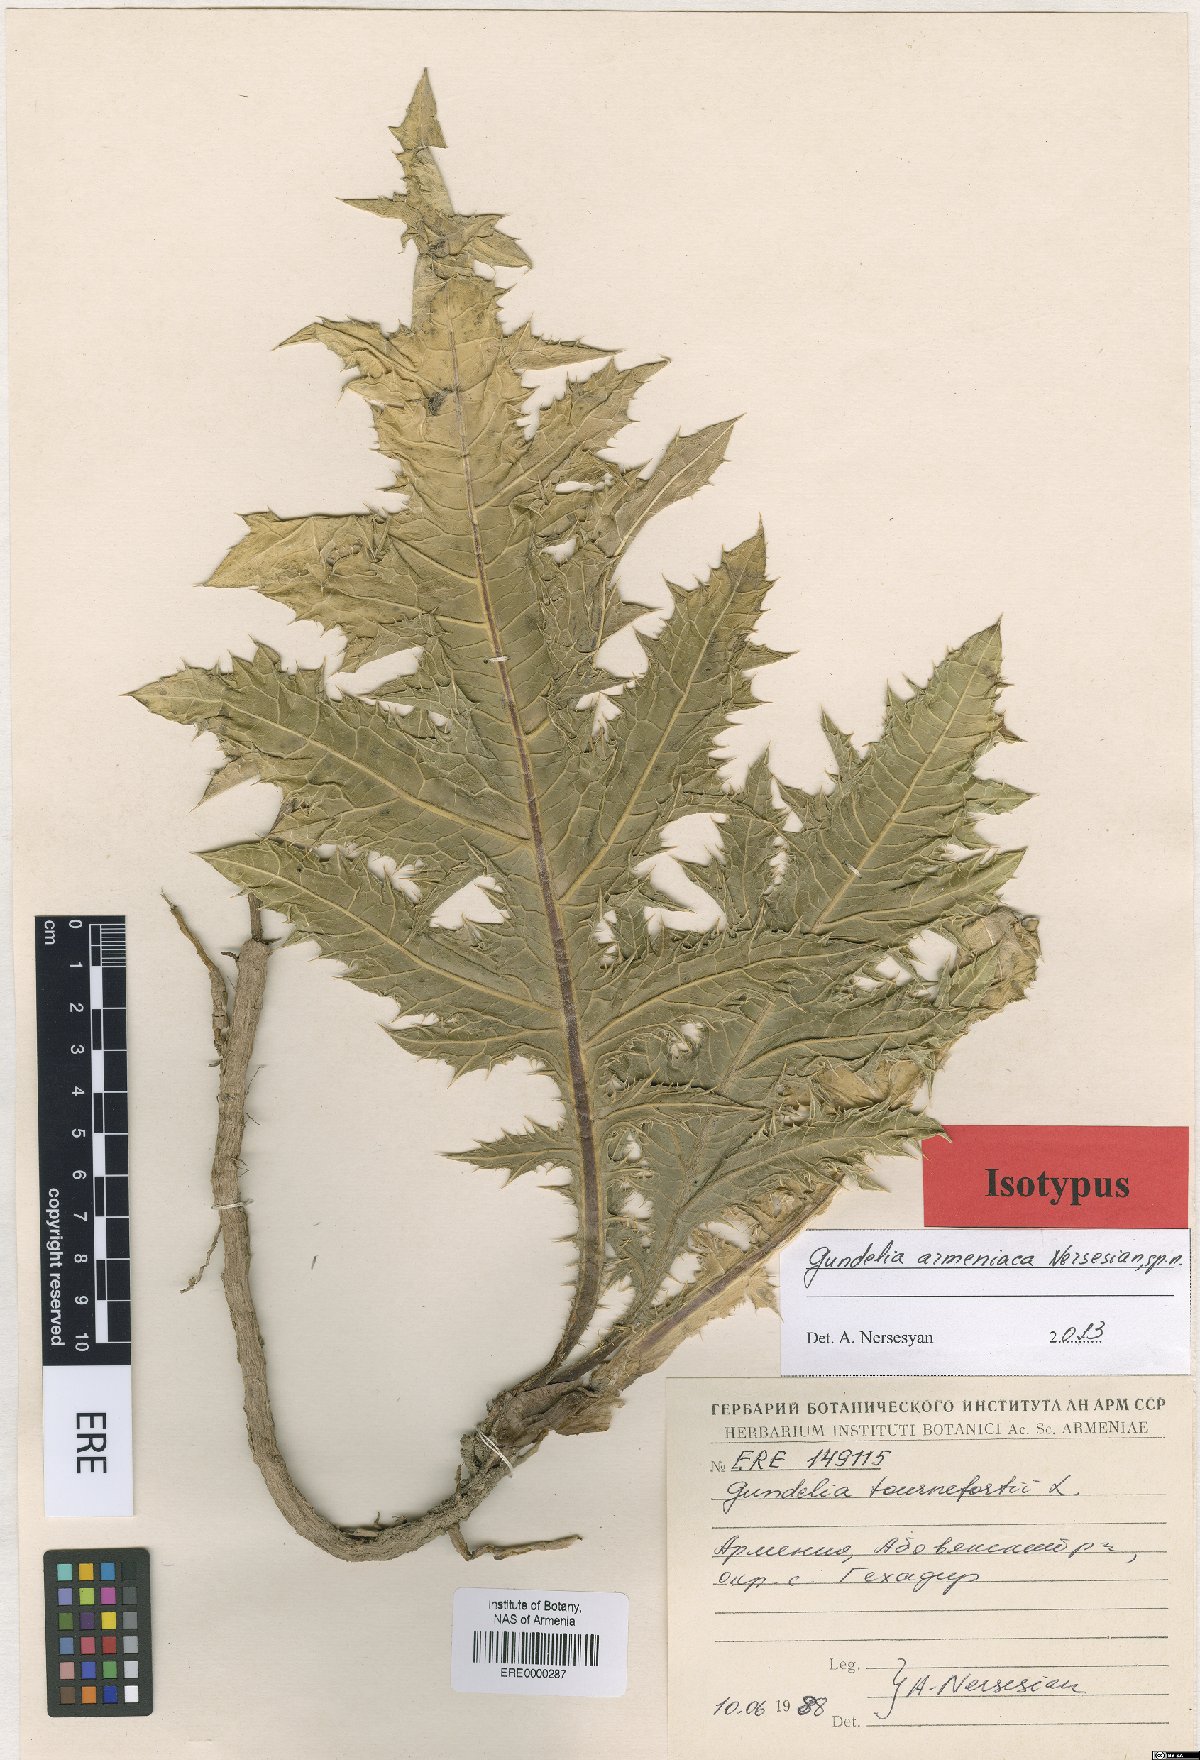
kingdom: Plantae
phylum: Tracheophyta
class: Magnoliopsida
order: Asterales
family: Asteraceae
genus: Gundelia
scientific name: Gundelia armeniaca
